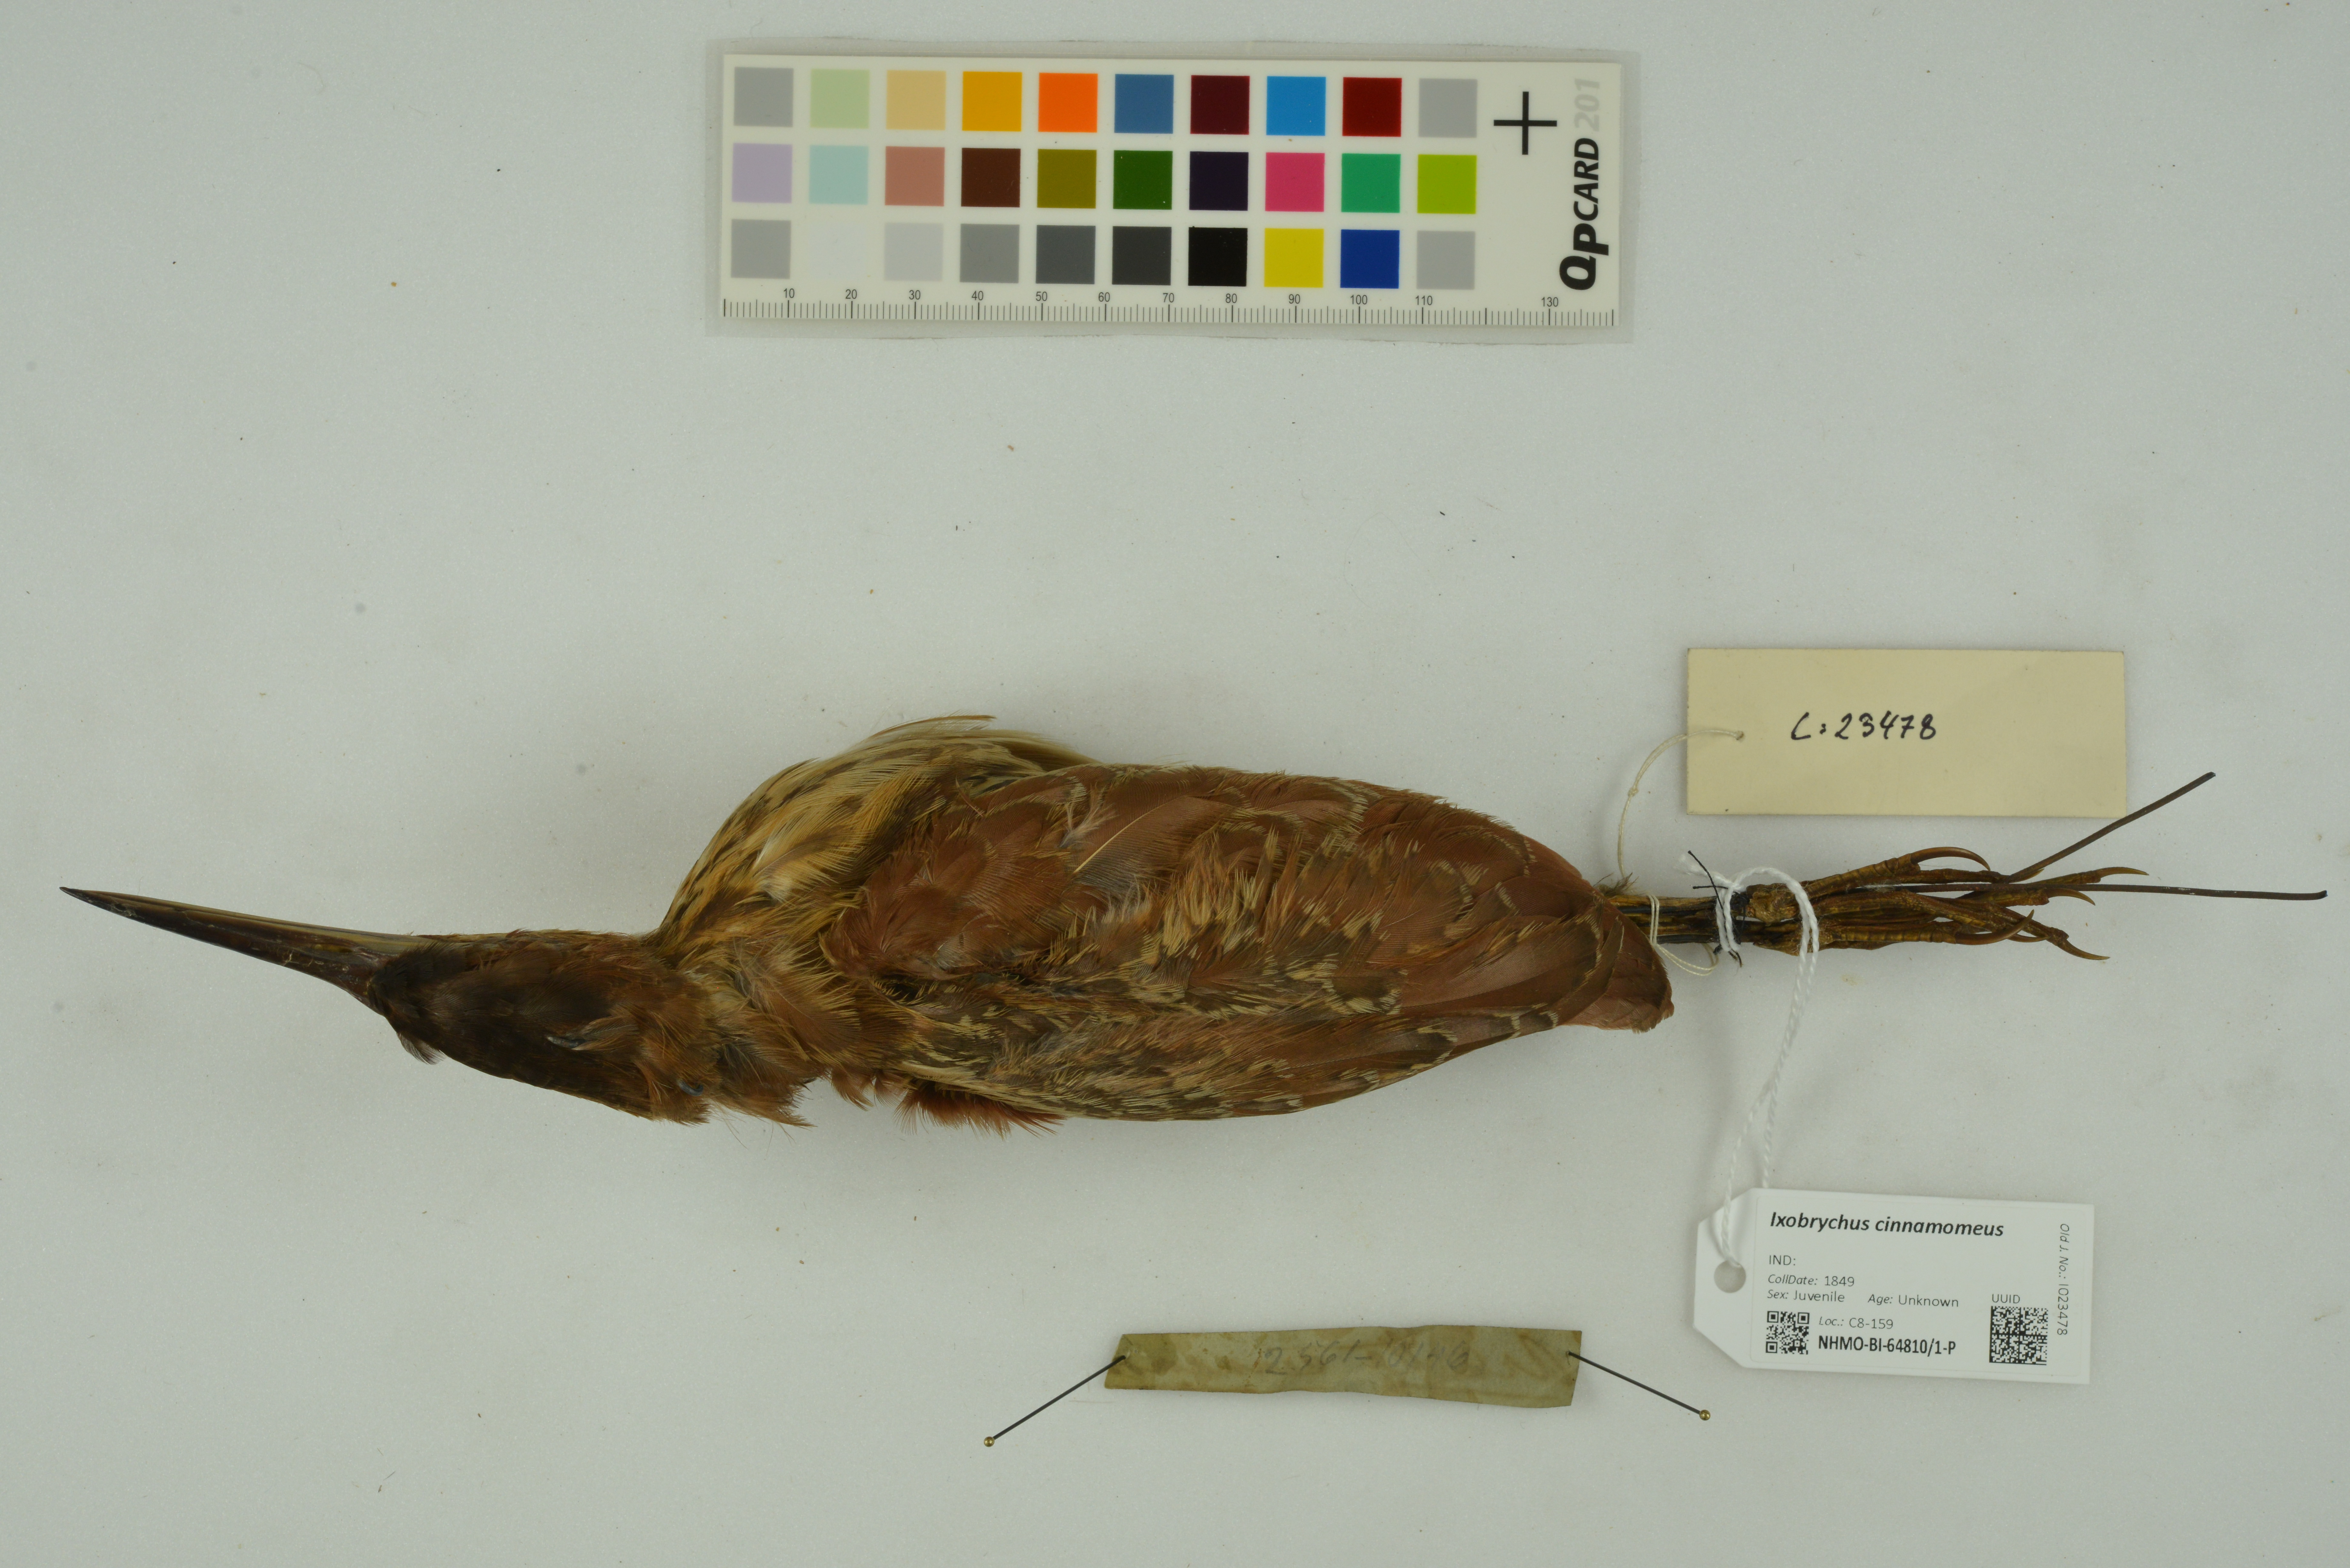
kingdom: Animalia
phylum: Chordata
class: Aves
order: Pelecaniformes
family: Ardeidae
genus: Ixobrychus
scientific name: Ixobrychus cinnamomeus
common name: Cinnamon bittern
